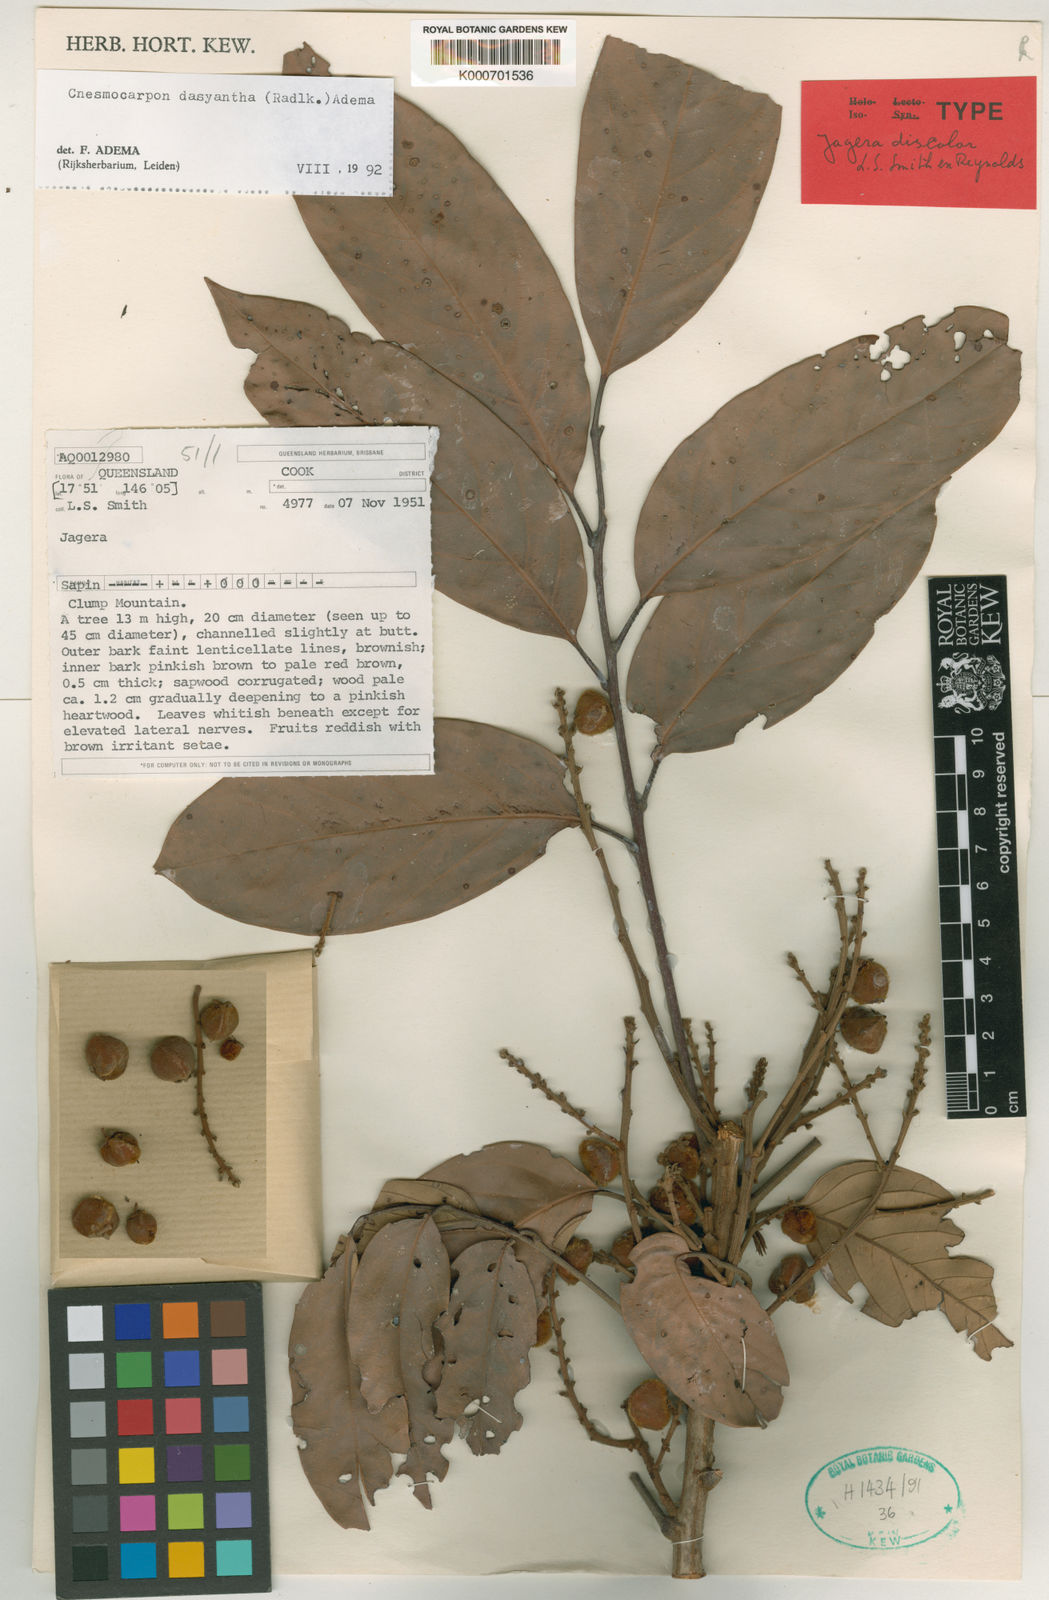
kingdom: Plantae
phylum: Tracheophyta
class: Magnoliopsida
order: Sapindales
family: Sapindaceae
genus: Cnesmocarpon
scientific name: Cnesmocarpon dasyantha
